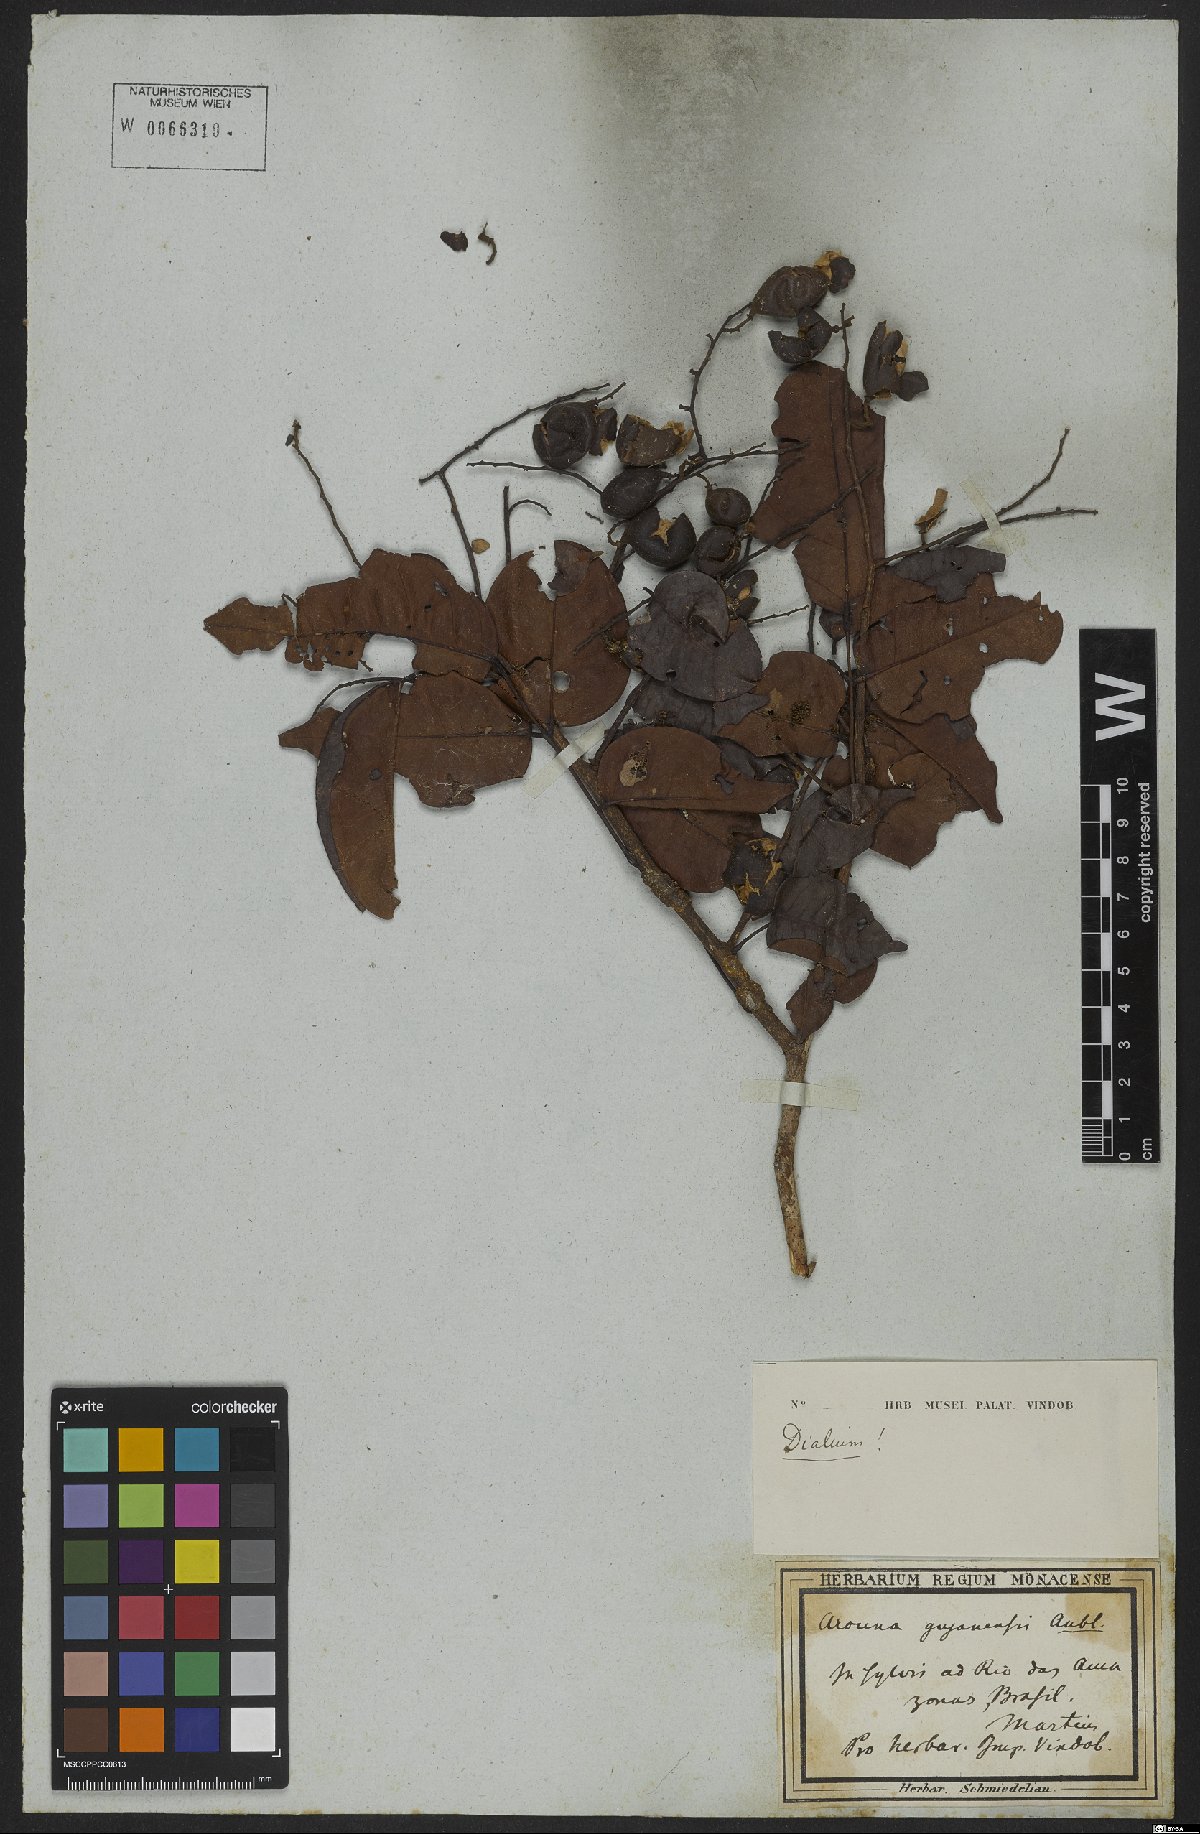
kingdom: Plantae
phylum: Tracheophyta
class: Magnoliopsida
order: Fabales
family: Fabaceae
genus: Dialium
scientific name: Dialium guianense
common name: Ironwood
